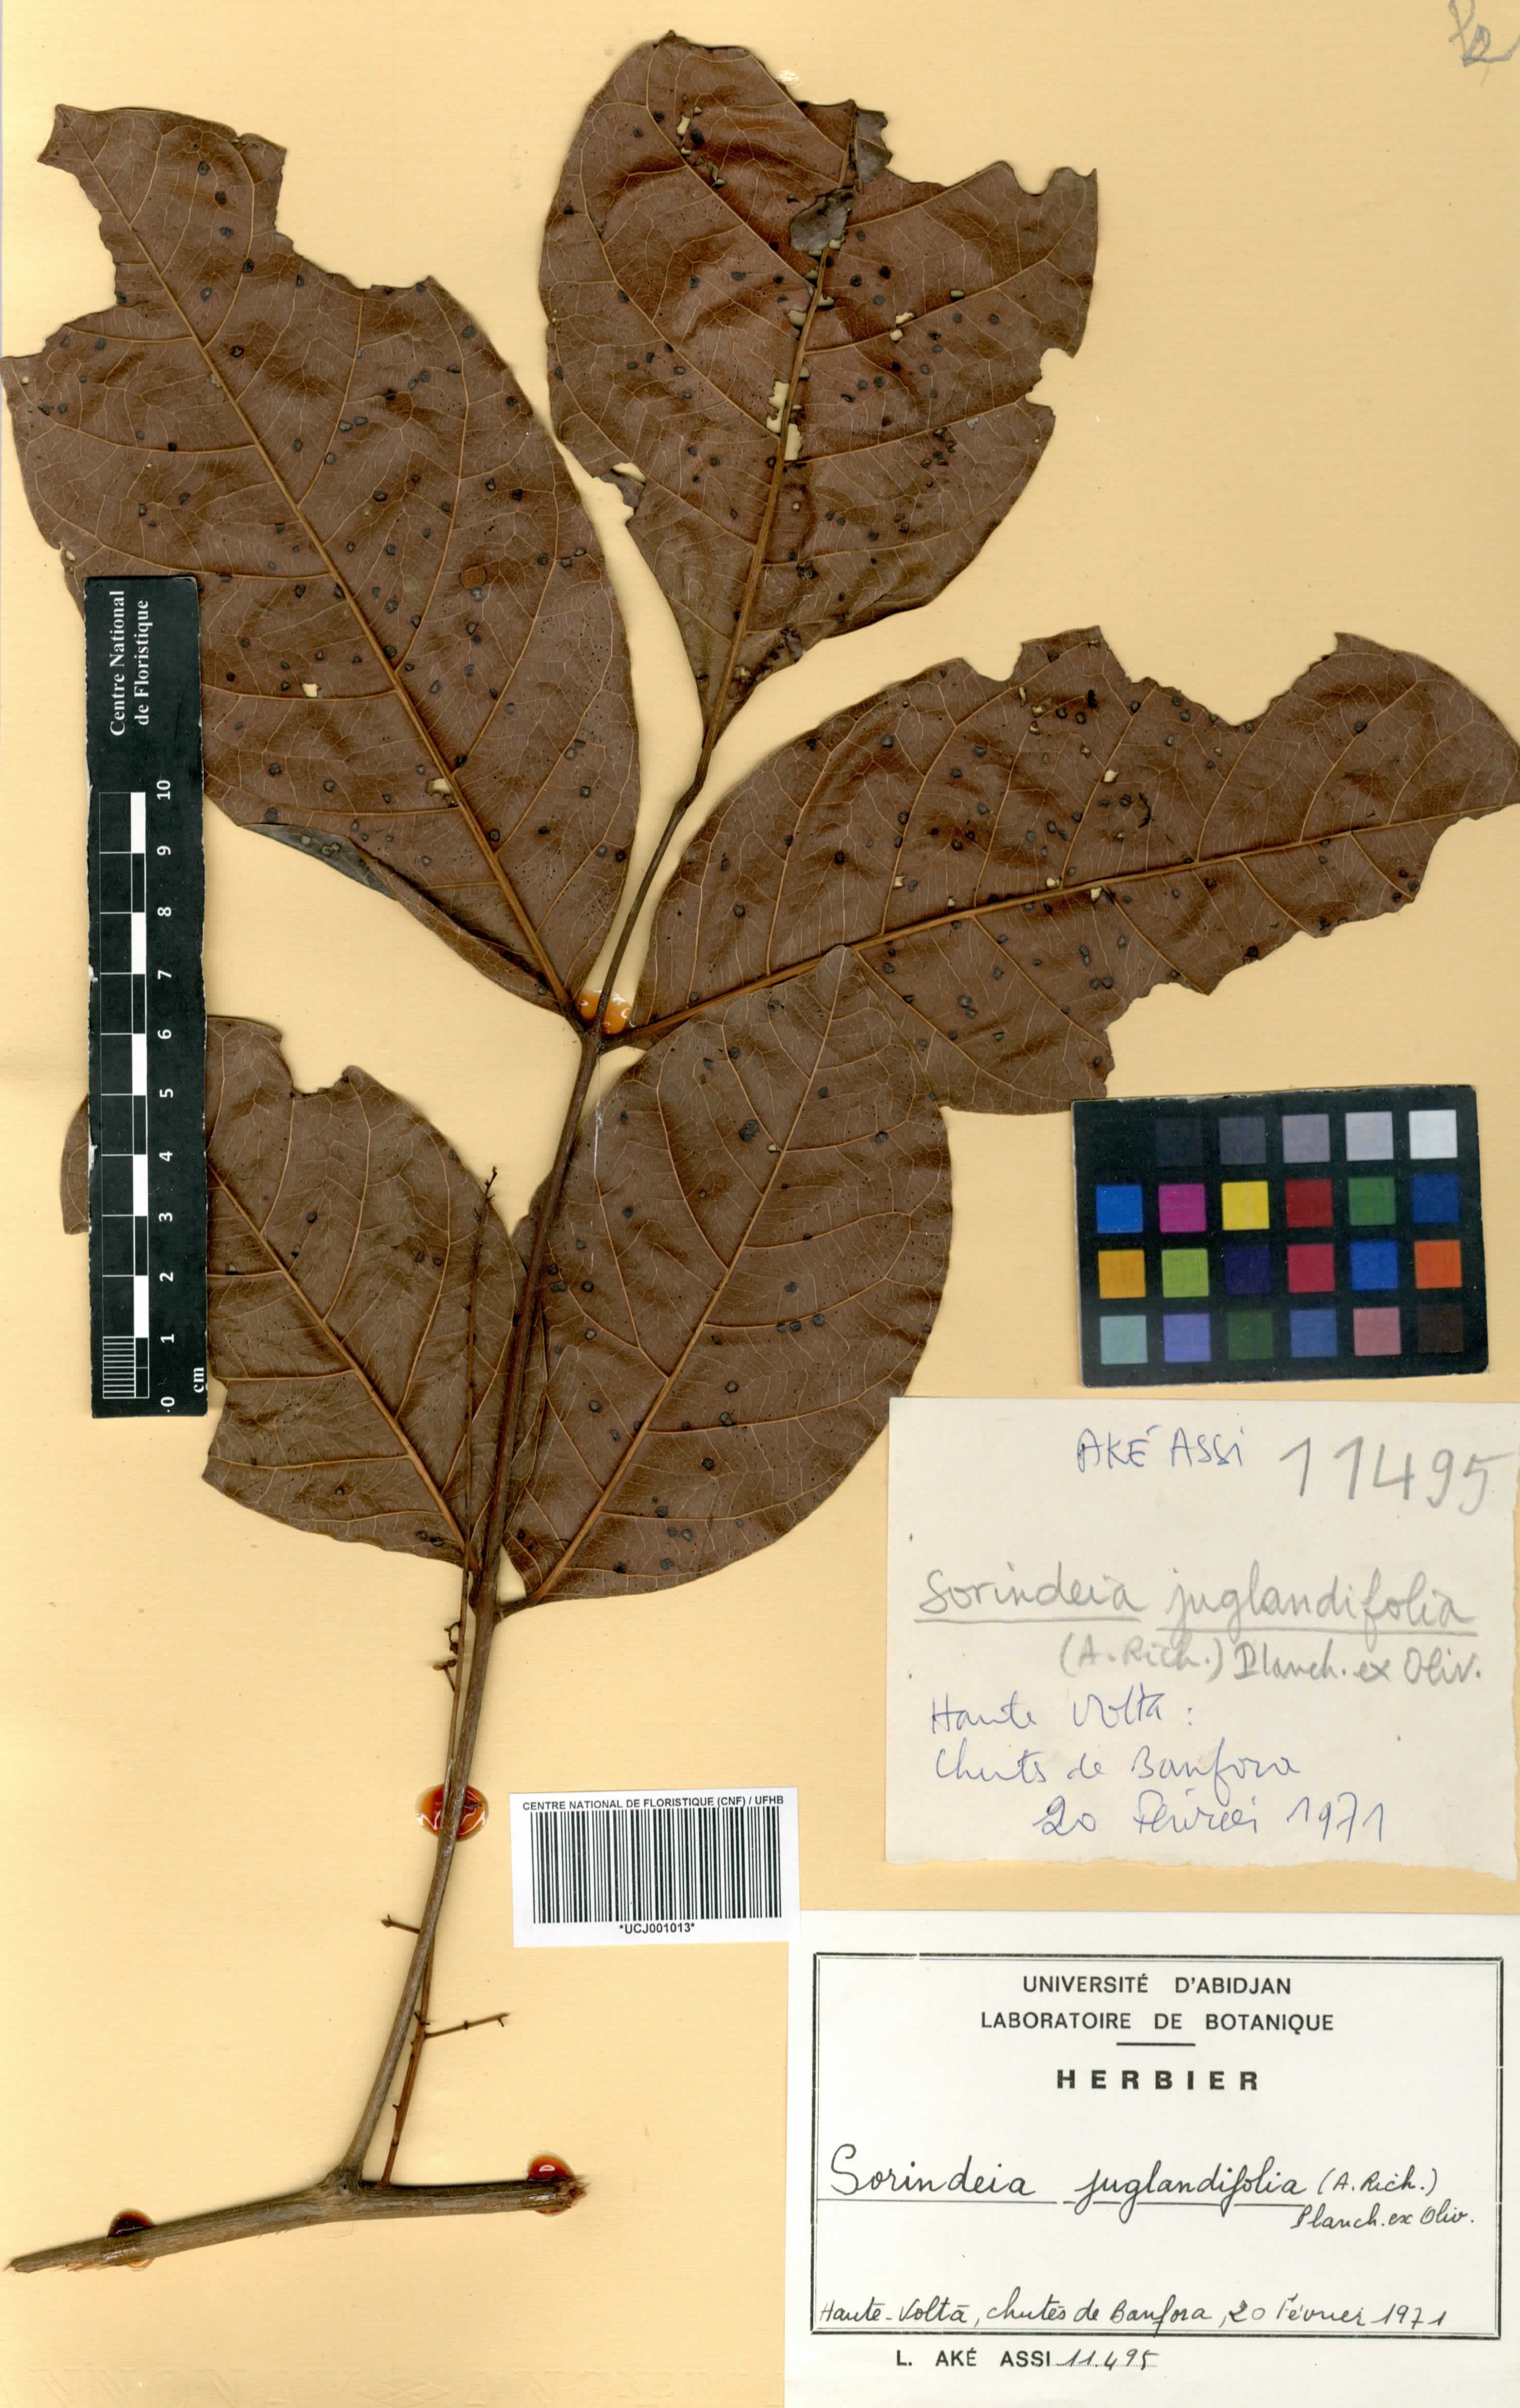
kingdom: Plantae
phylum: Tracheophyta
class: Magnoliopsida
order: Sapindales
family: Anacardiaceae
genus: Sorindeia
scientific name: Sorindeia juglandifolia
